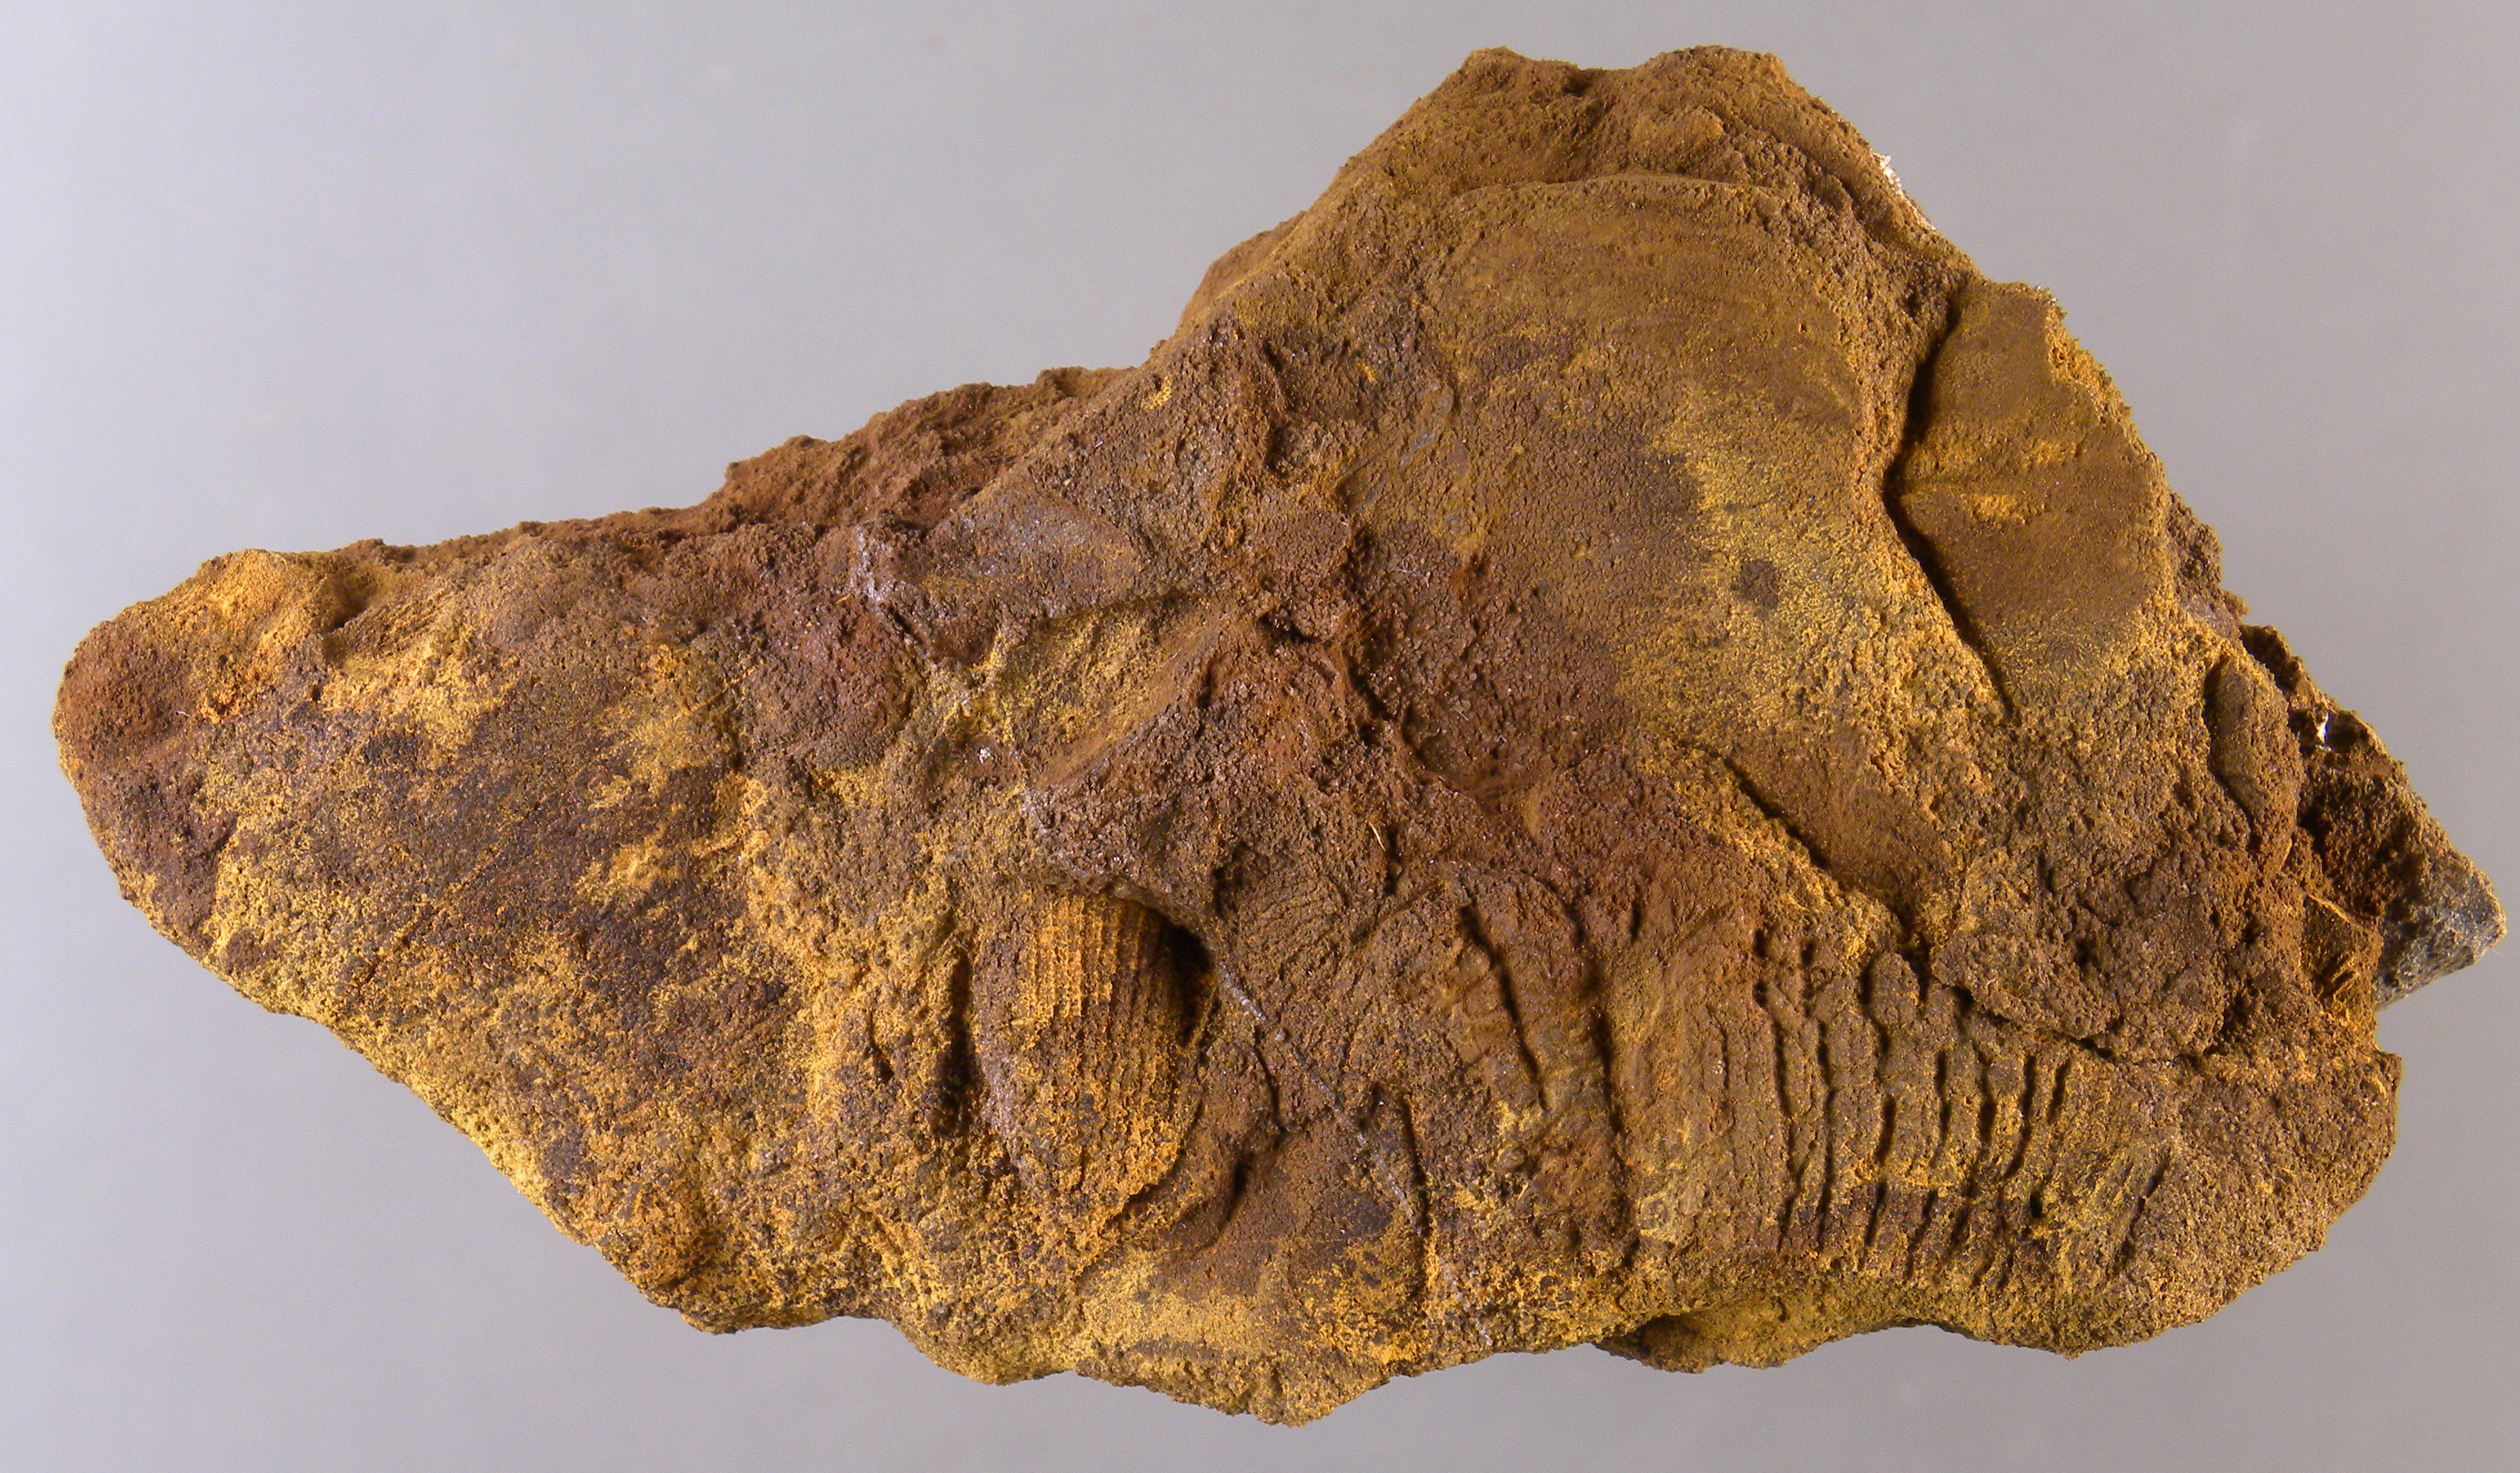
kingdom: Animalia
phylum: Mollusca
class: Bivalvia
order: Ostreida
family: Pterineidae
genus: Ptychopteria
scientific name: Ptychopteria
